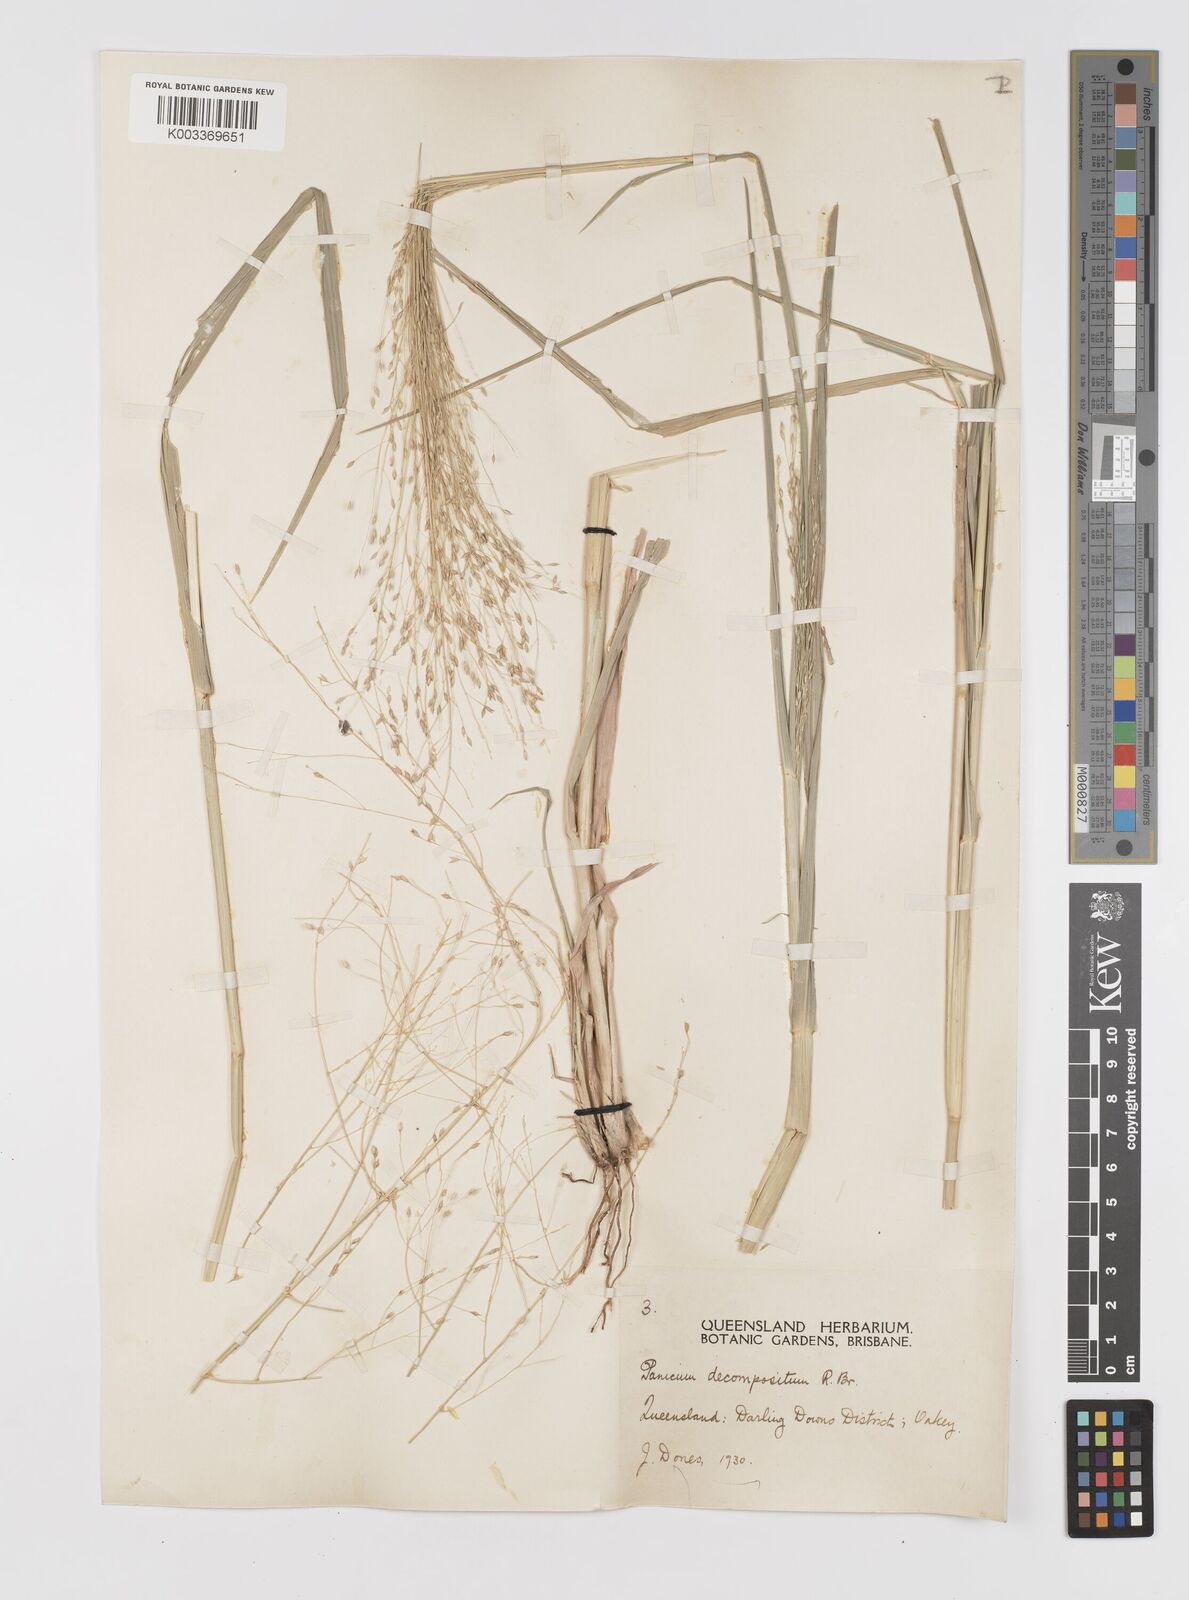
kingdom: Plantae
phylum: Tracheophyta
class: Liliopsida
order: Poales
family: Poaceae
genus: Panicum
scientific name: Panicum decompositum
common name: Australian millet
